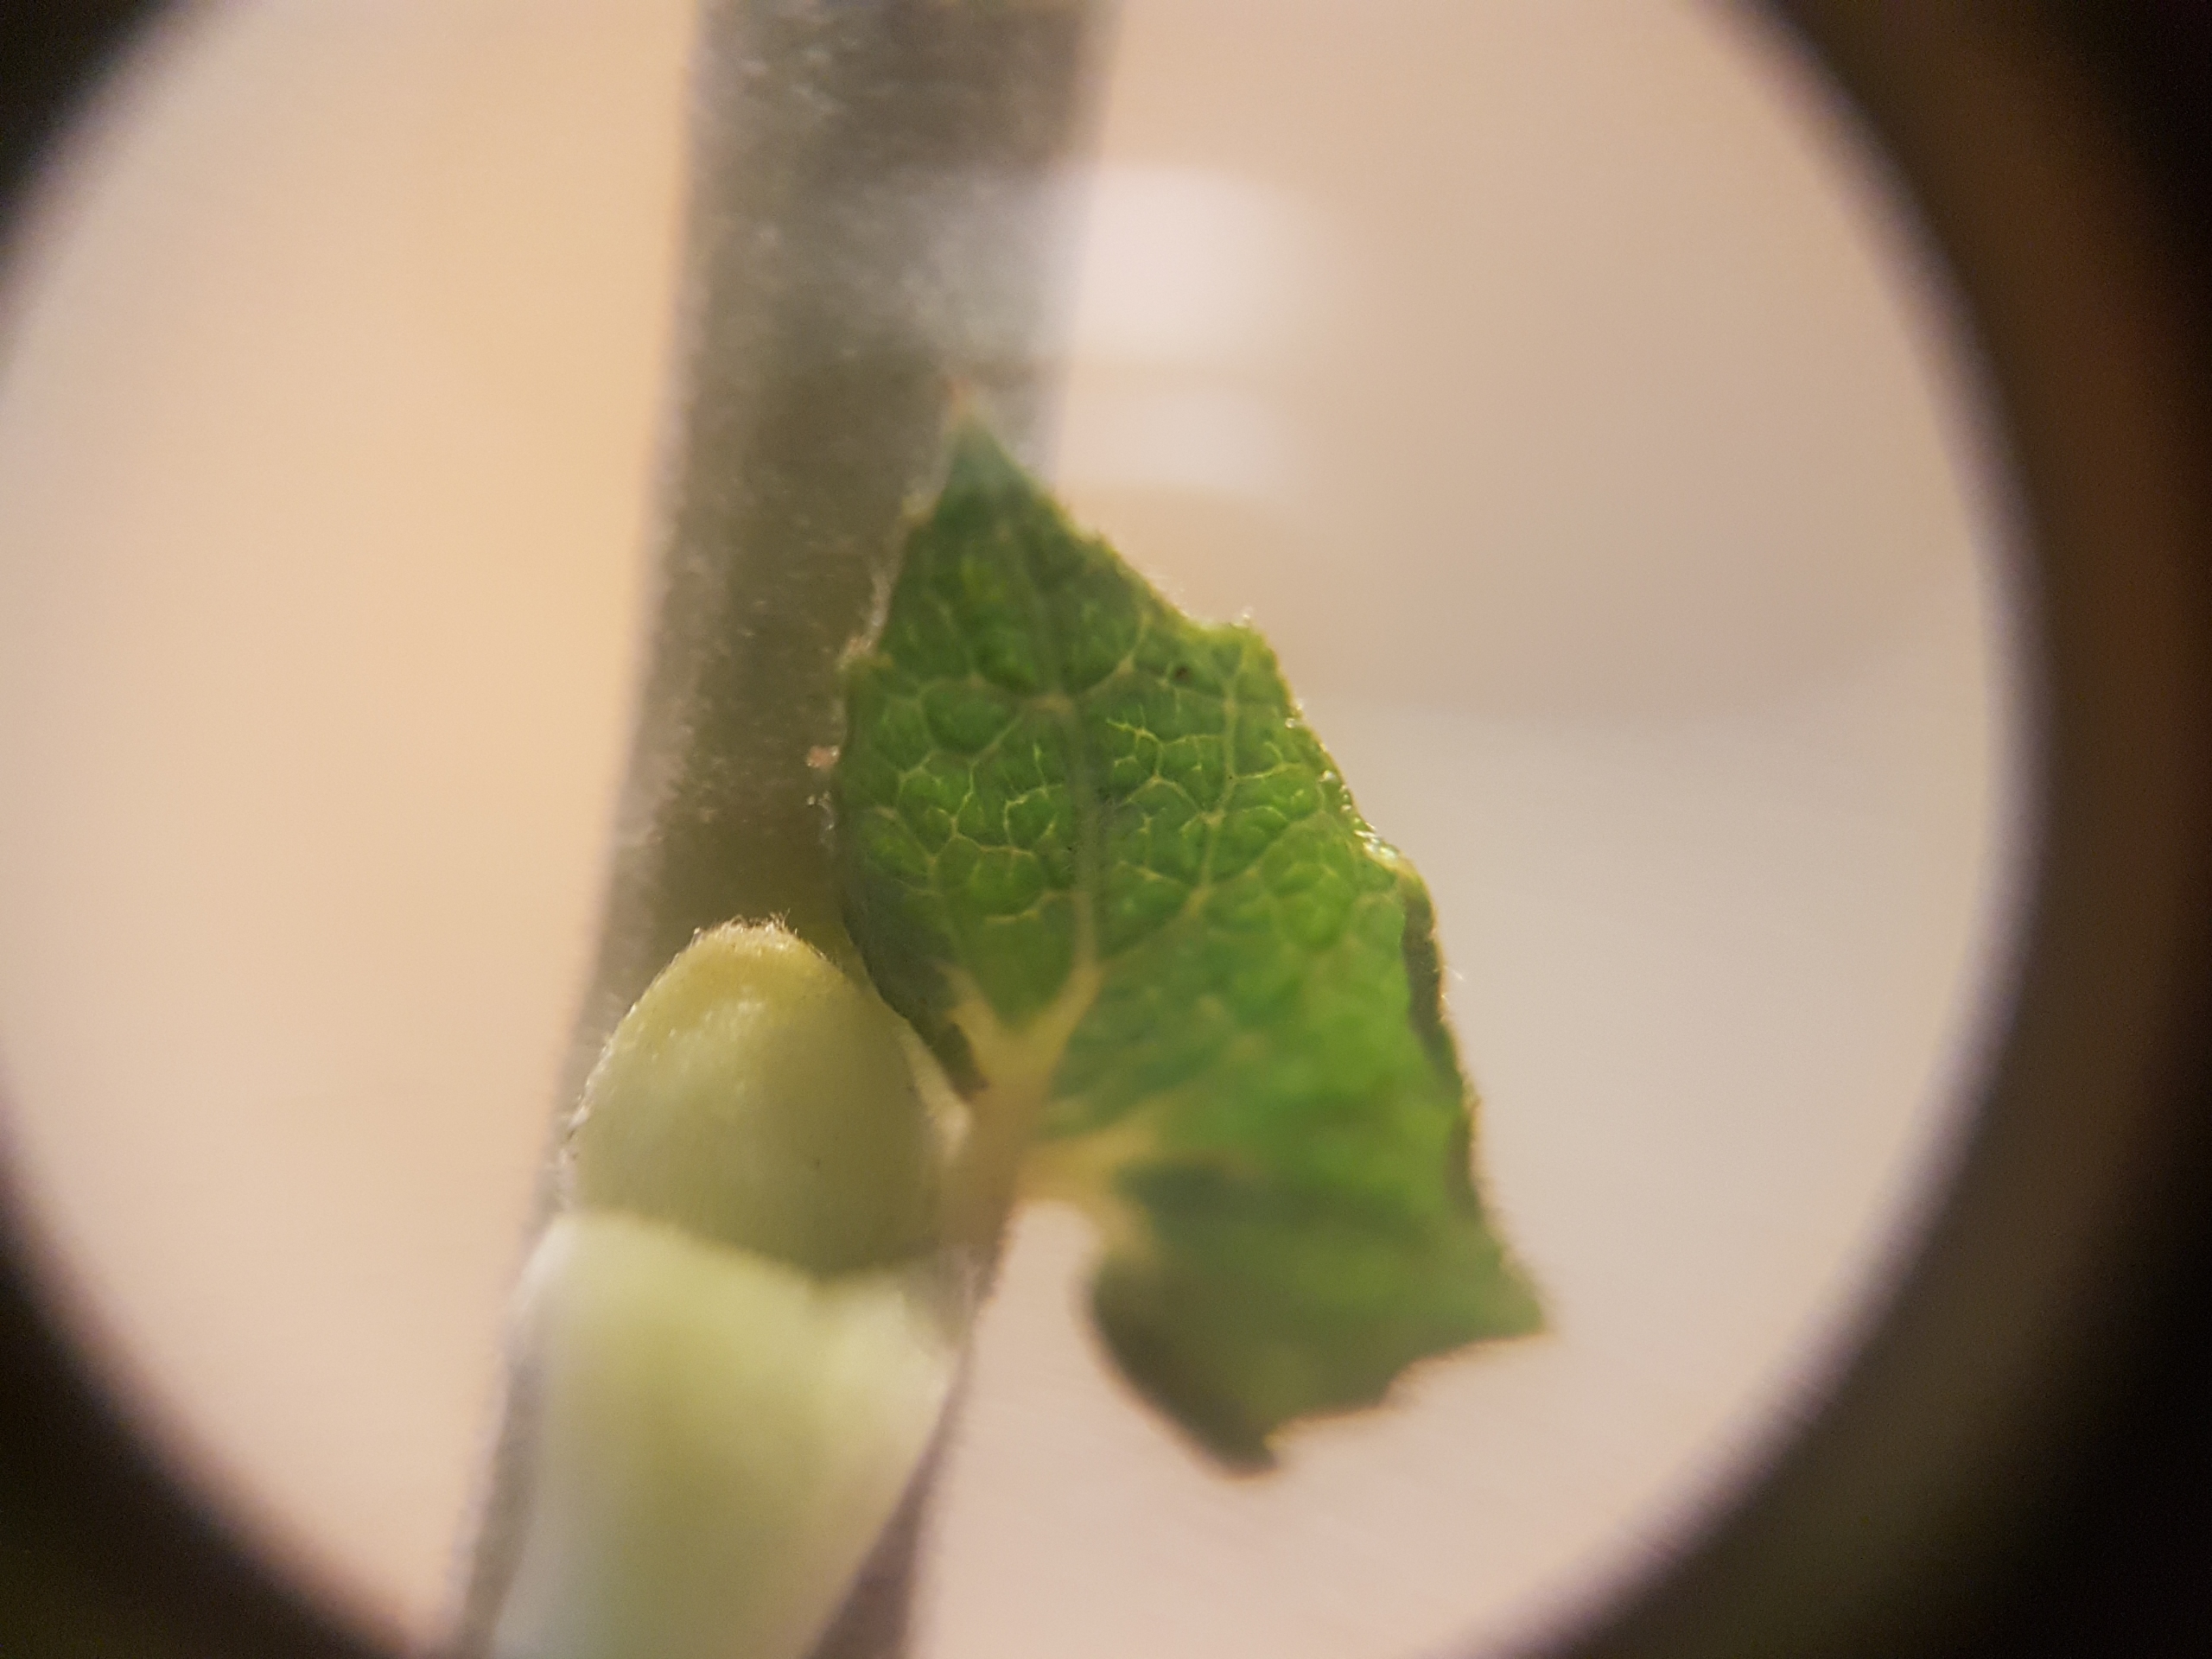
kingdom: Plantae
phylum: Tracheophyta
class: Magnoliopsida
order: Malpighiales
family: Salicaceae
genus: Salix
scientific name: Salix cinerea
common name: Grå-pil
